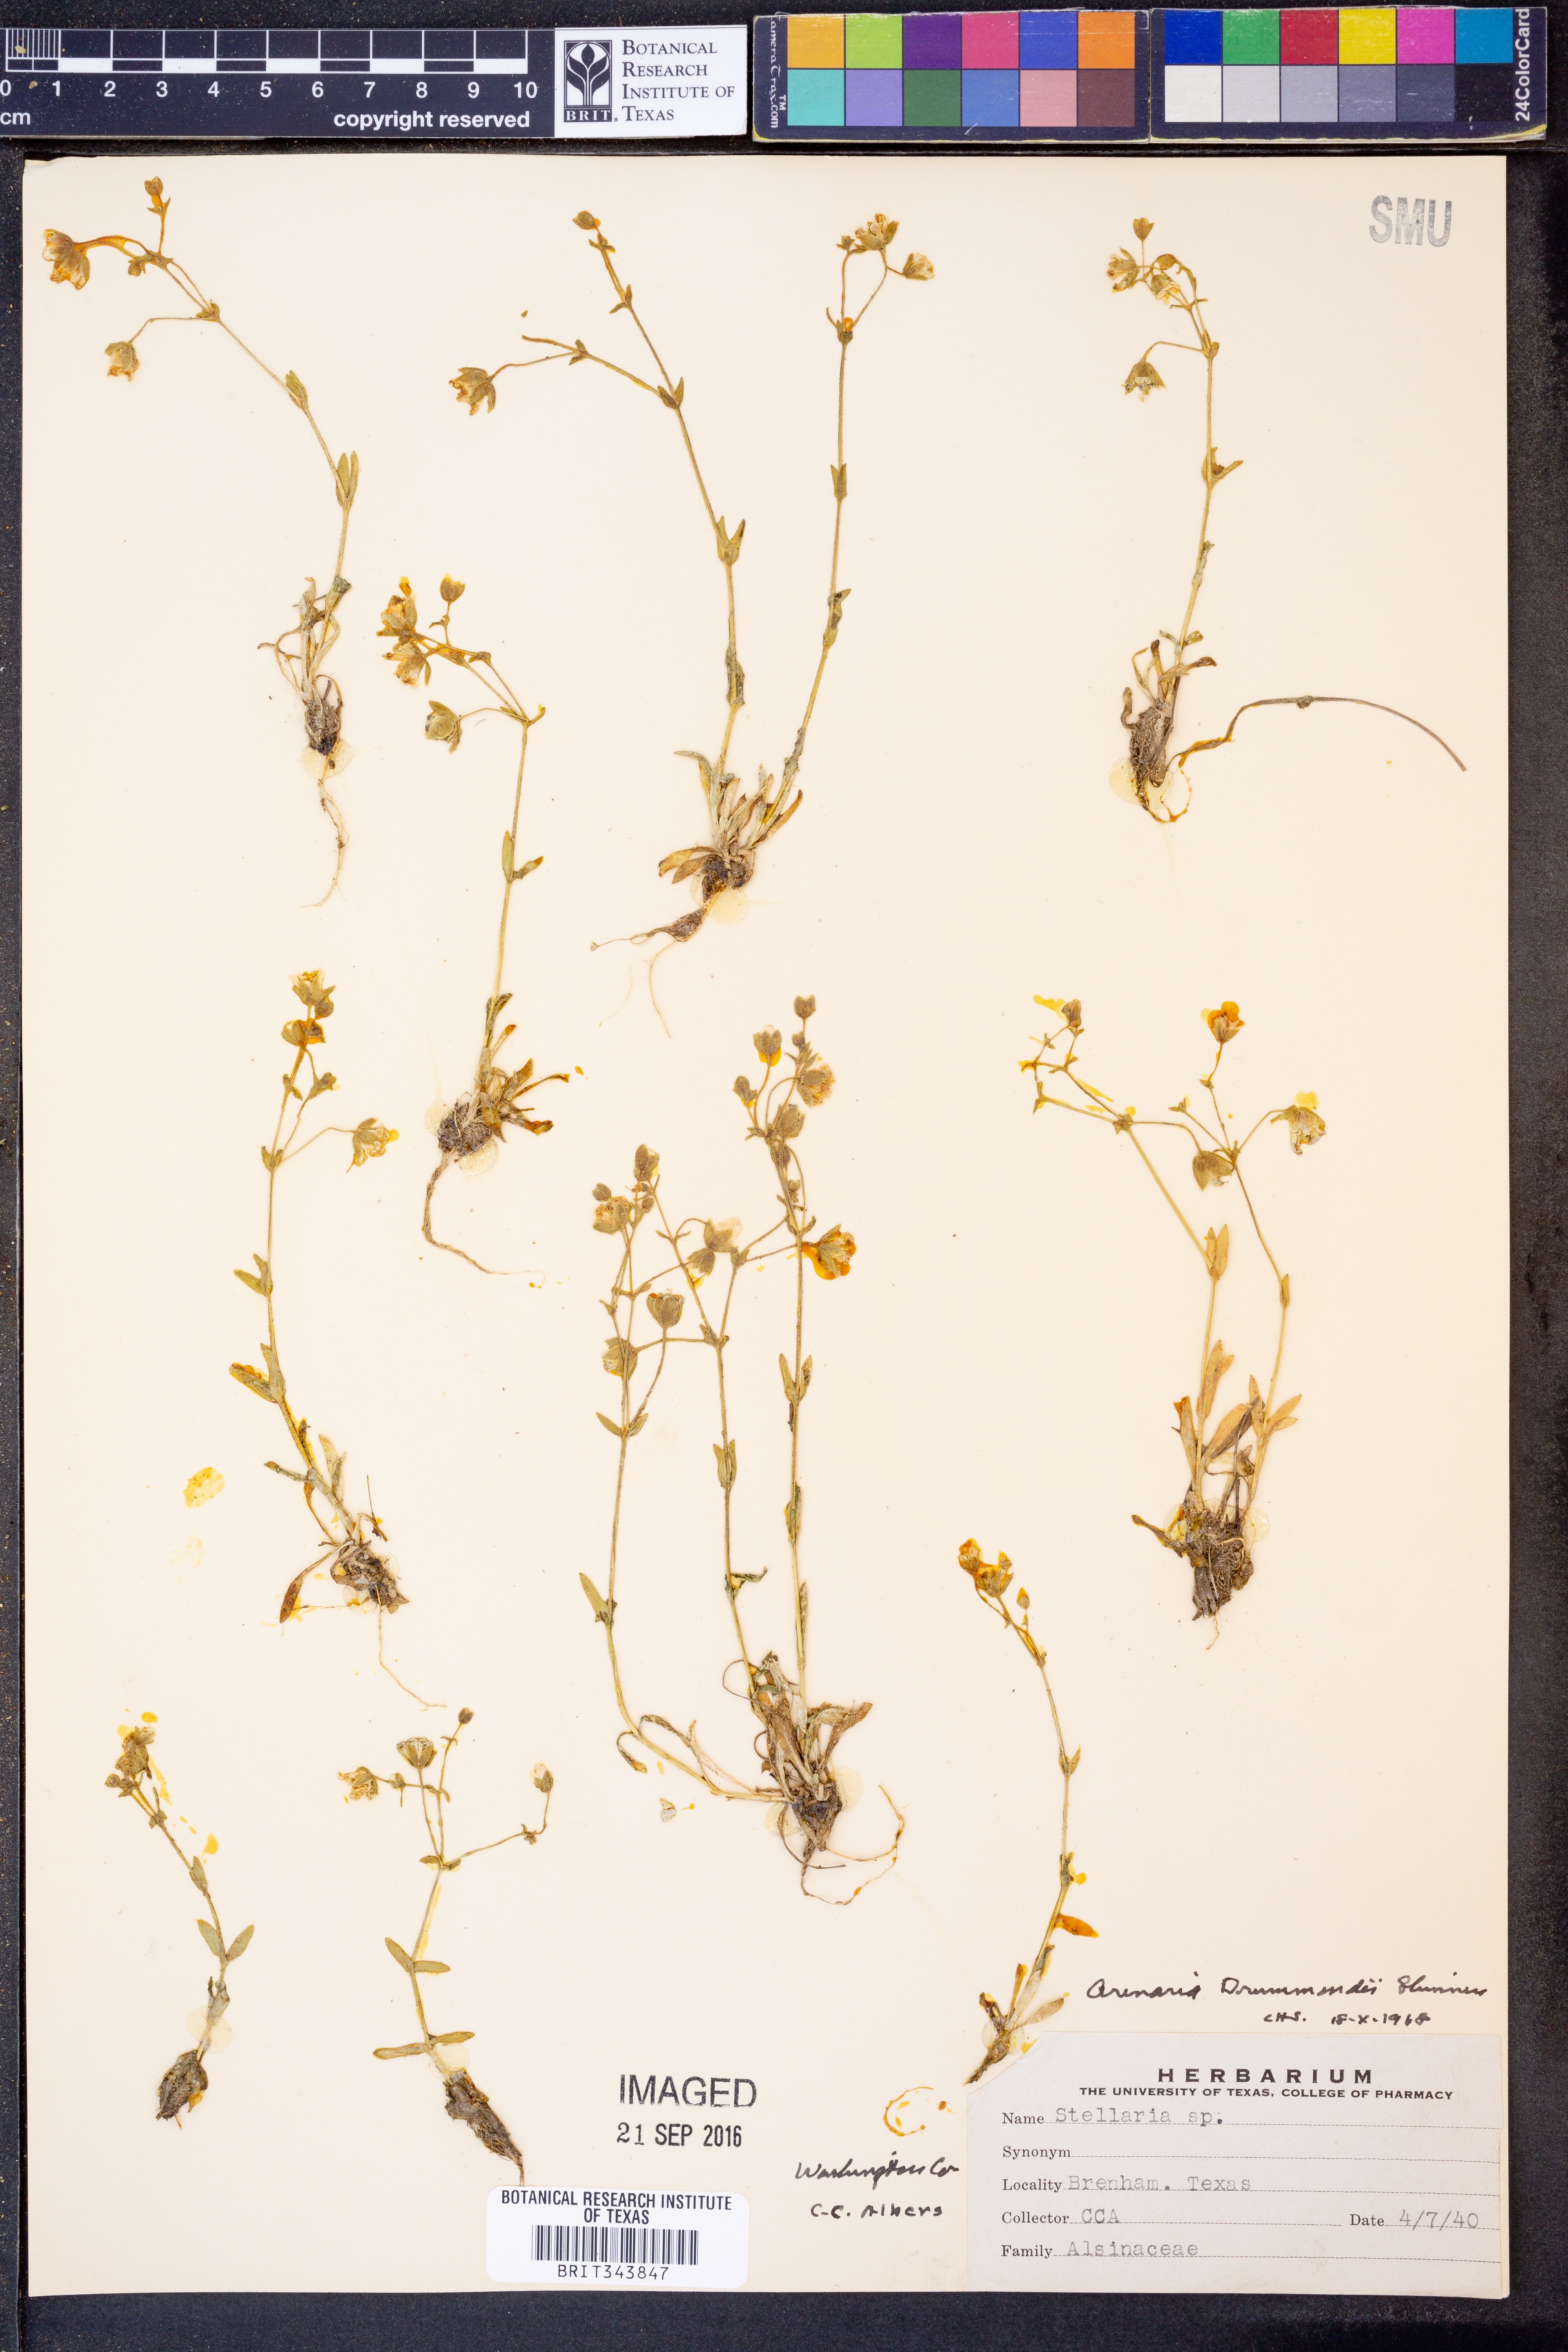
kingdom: Plantae
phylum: Tracheophyta
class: Magnoliopsida
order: Caryophyllales
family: Caryophyllaceae
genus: Geocarpon
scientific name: Geocarpon nuttallii
